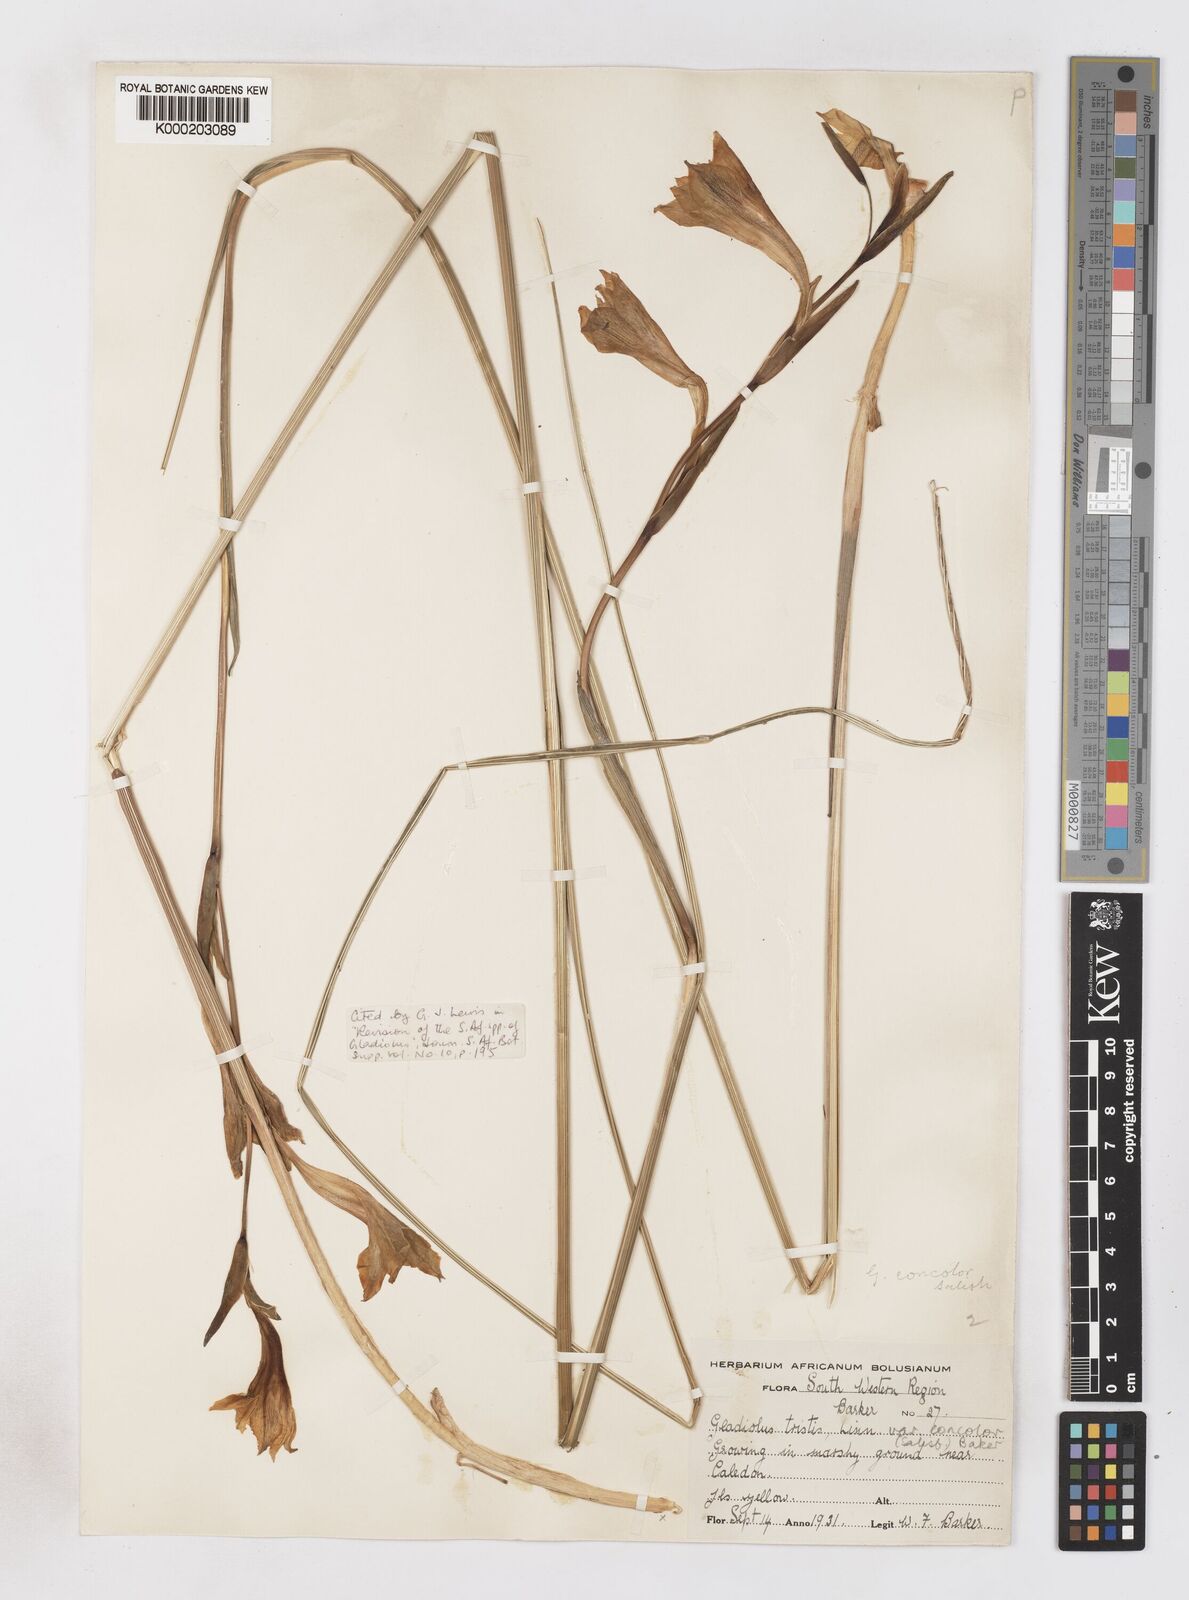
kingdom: Plantae
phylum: Tracheophyta
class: Liliopsida
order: Asparagales
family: Iridaceae
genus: Gladiolus
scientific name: Gladiolus tristis
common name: Ever-flowering gladiolus
